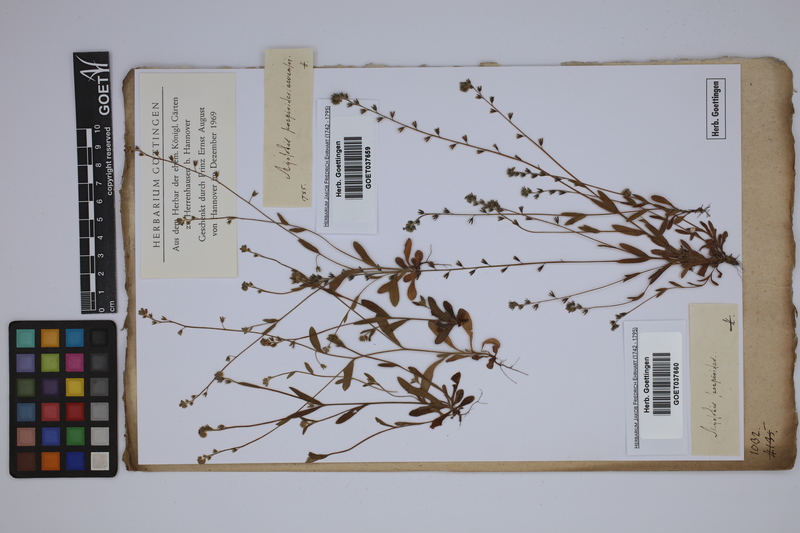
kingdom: Plantae
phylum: Tracheophyta
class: Magnoliopsida
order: Boraginales
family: Boraginaceae
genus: Myosotis
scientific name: Myosotis arvensis
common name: Field forget-me-not
